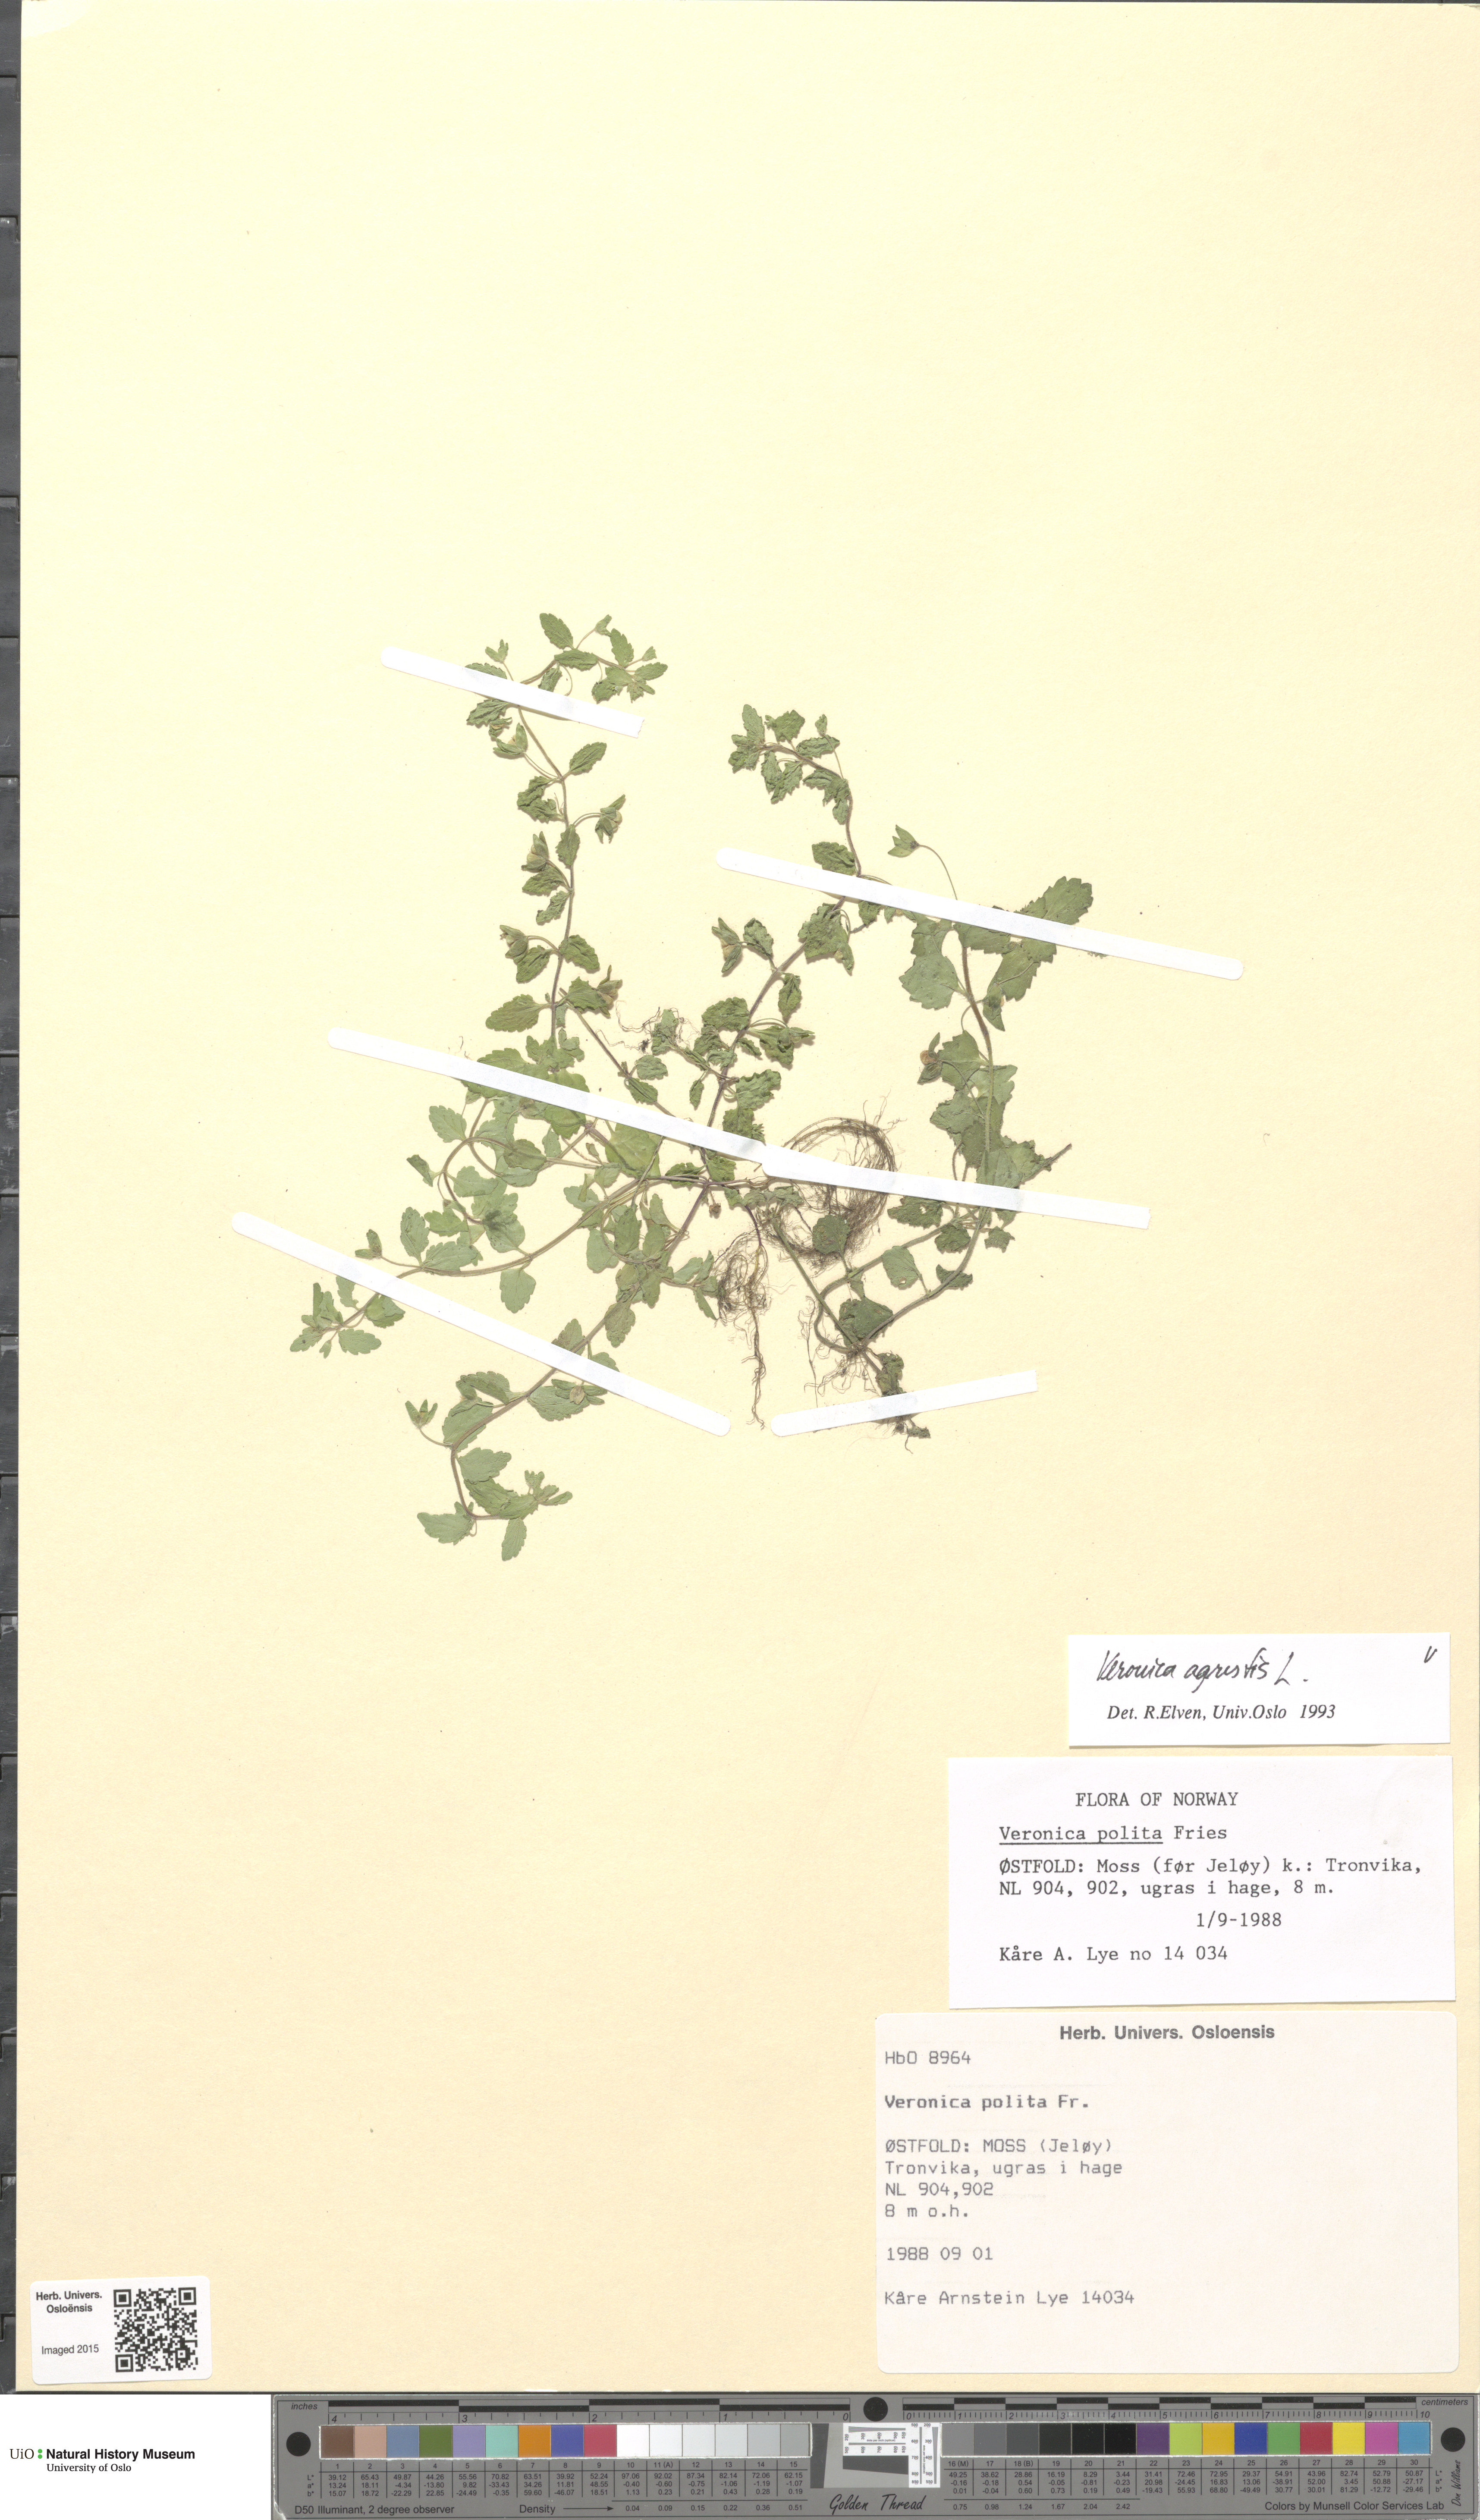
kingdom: Plantae
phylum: Tracheophyta
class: Magnoliopsida
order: Lamiales
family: Plantaginaceae
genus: Veronica
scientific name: Veronica agrestis
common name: Green field-speedwell
